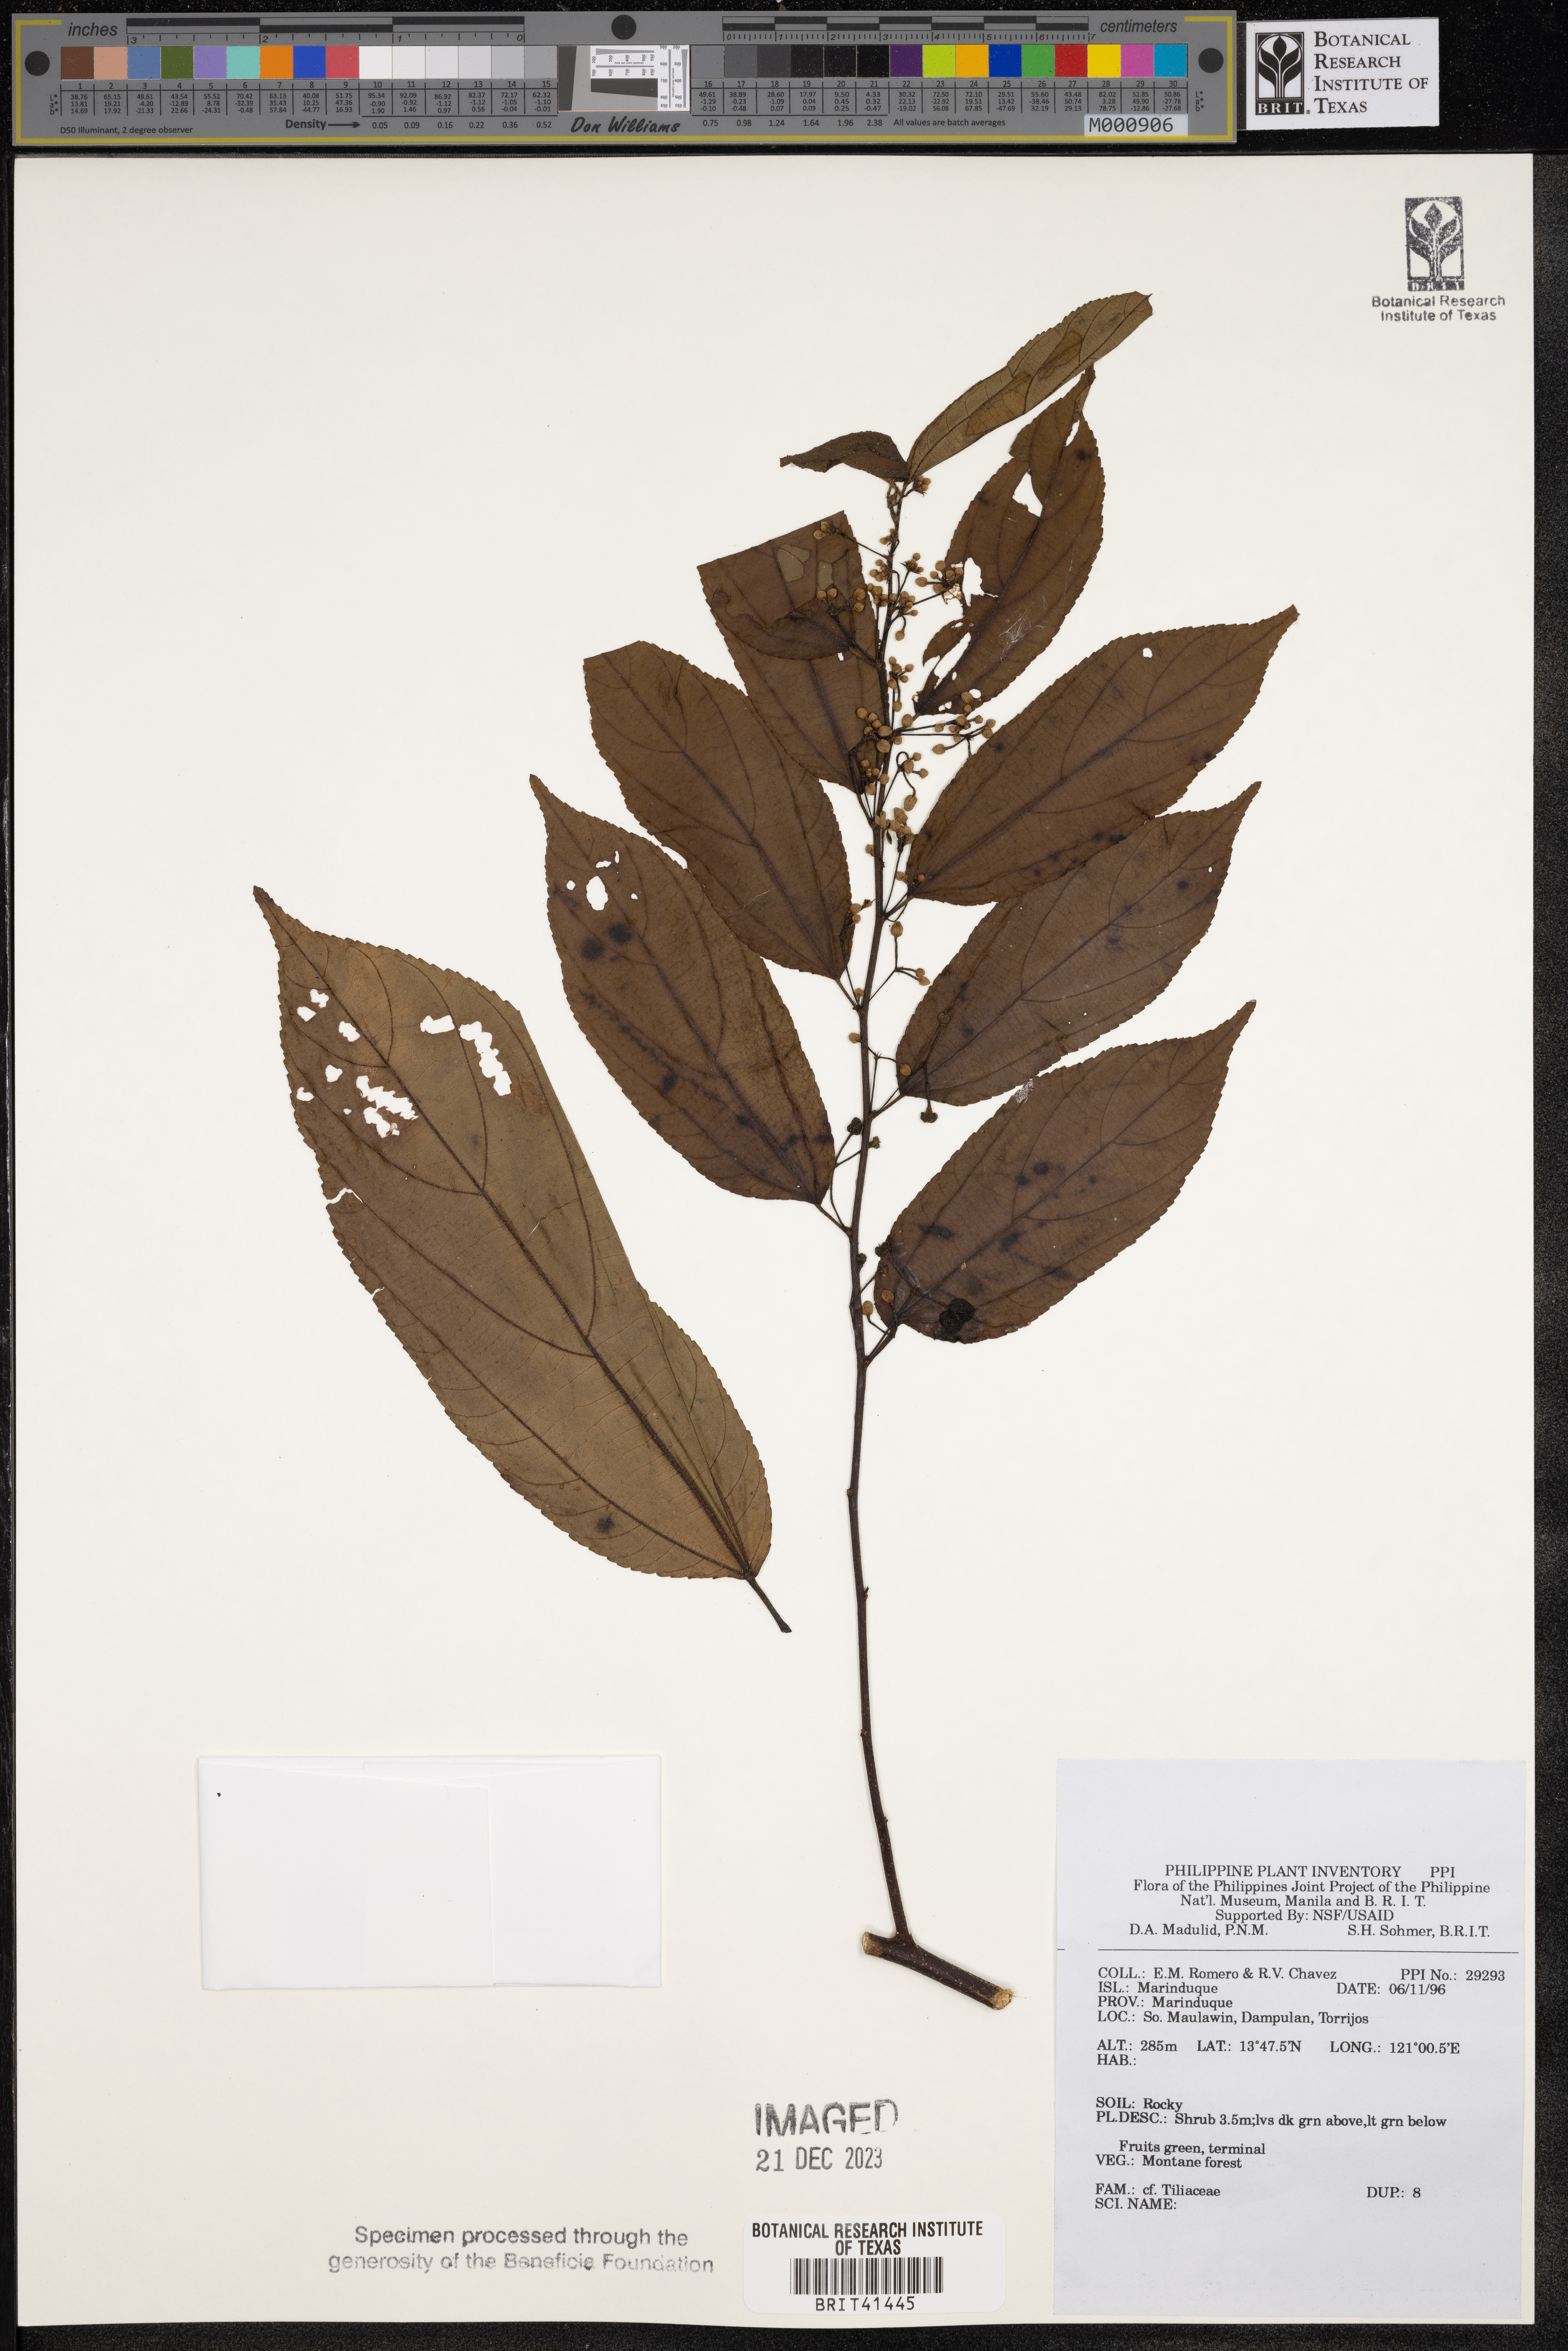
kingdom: Plantae
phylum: Tracheophyta
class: Magnoliopsida
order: Malvales
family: Tiliaceae
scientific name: Tiliaceae
